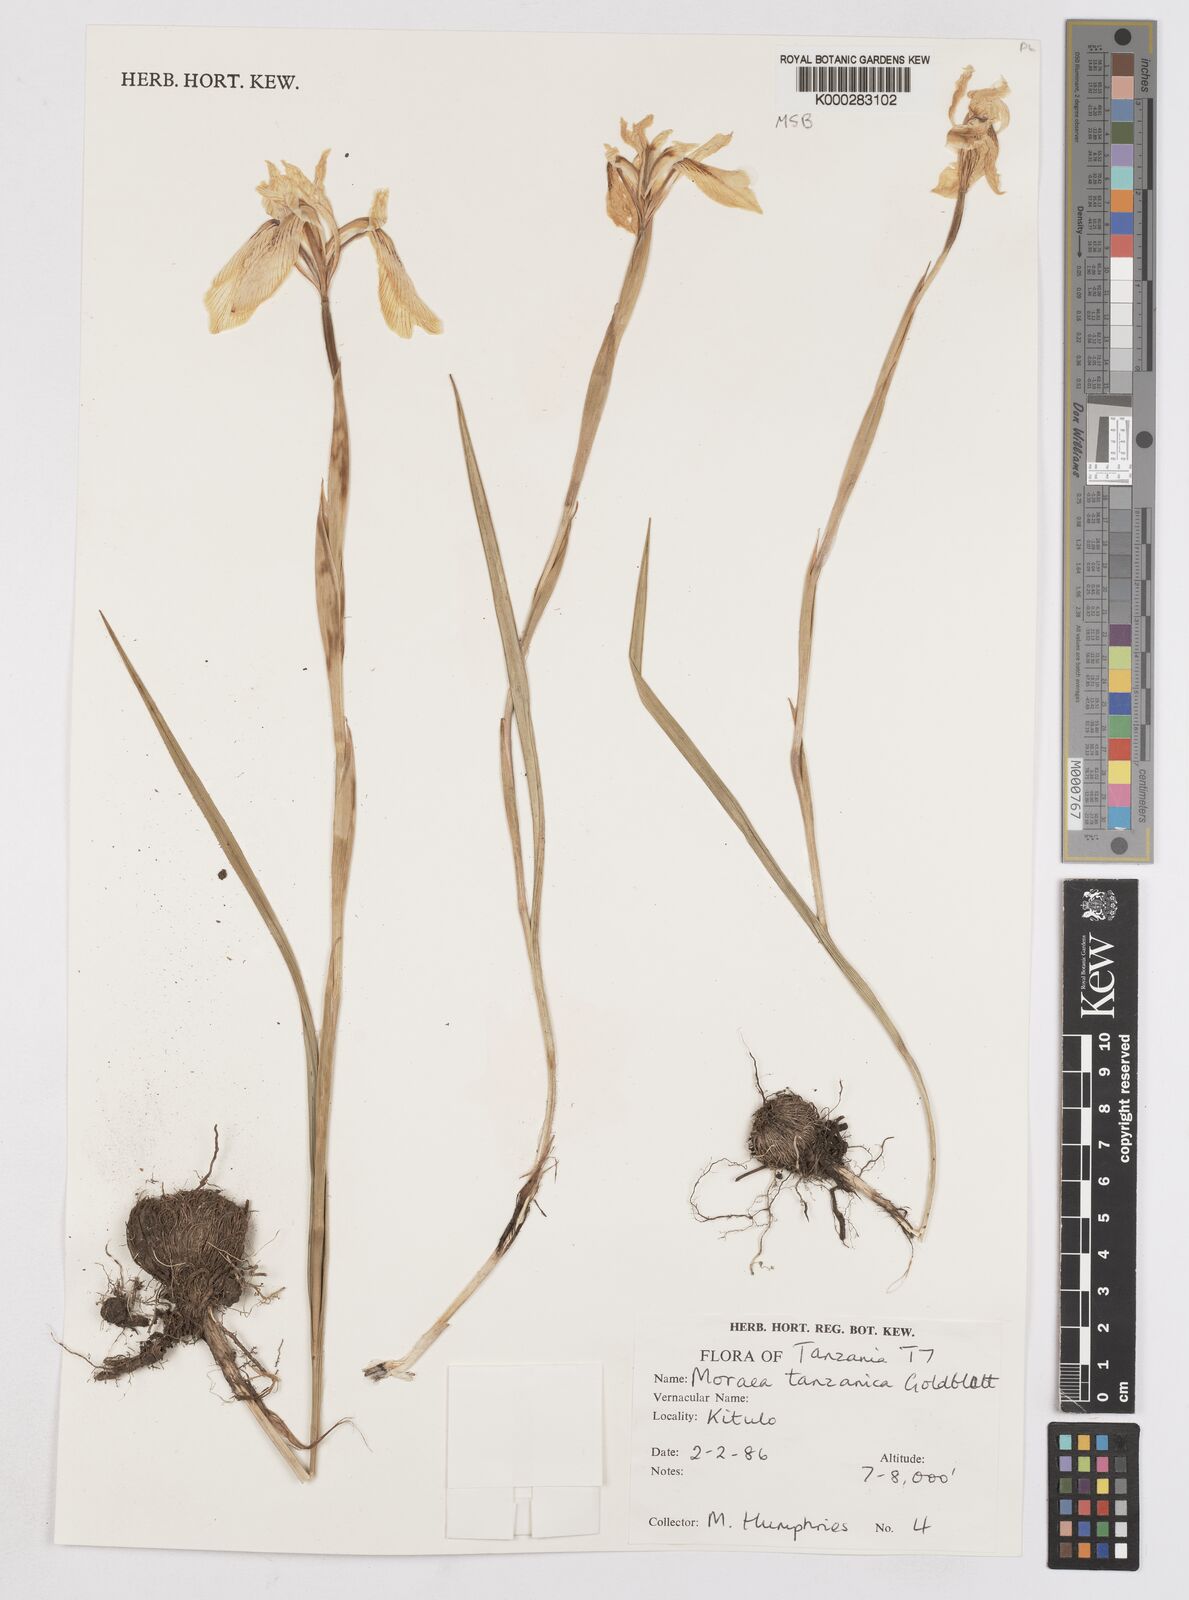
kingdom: Plantae
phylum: Tracheophyta
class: Liliopsida
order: Asparagales
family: Iridaceae
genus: Moraea
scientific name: Moraea tanzanica
